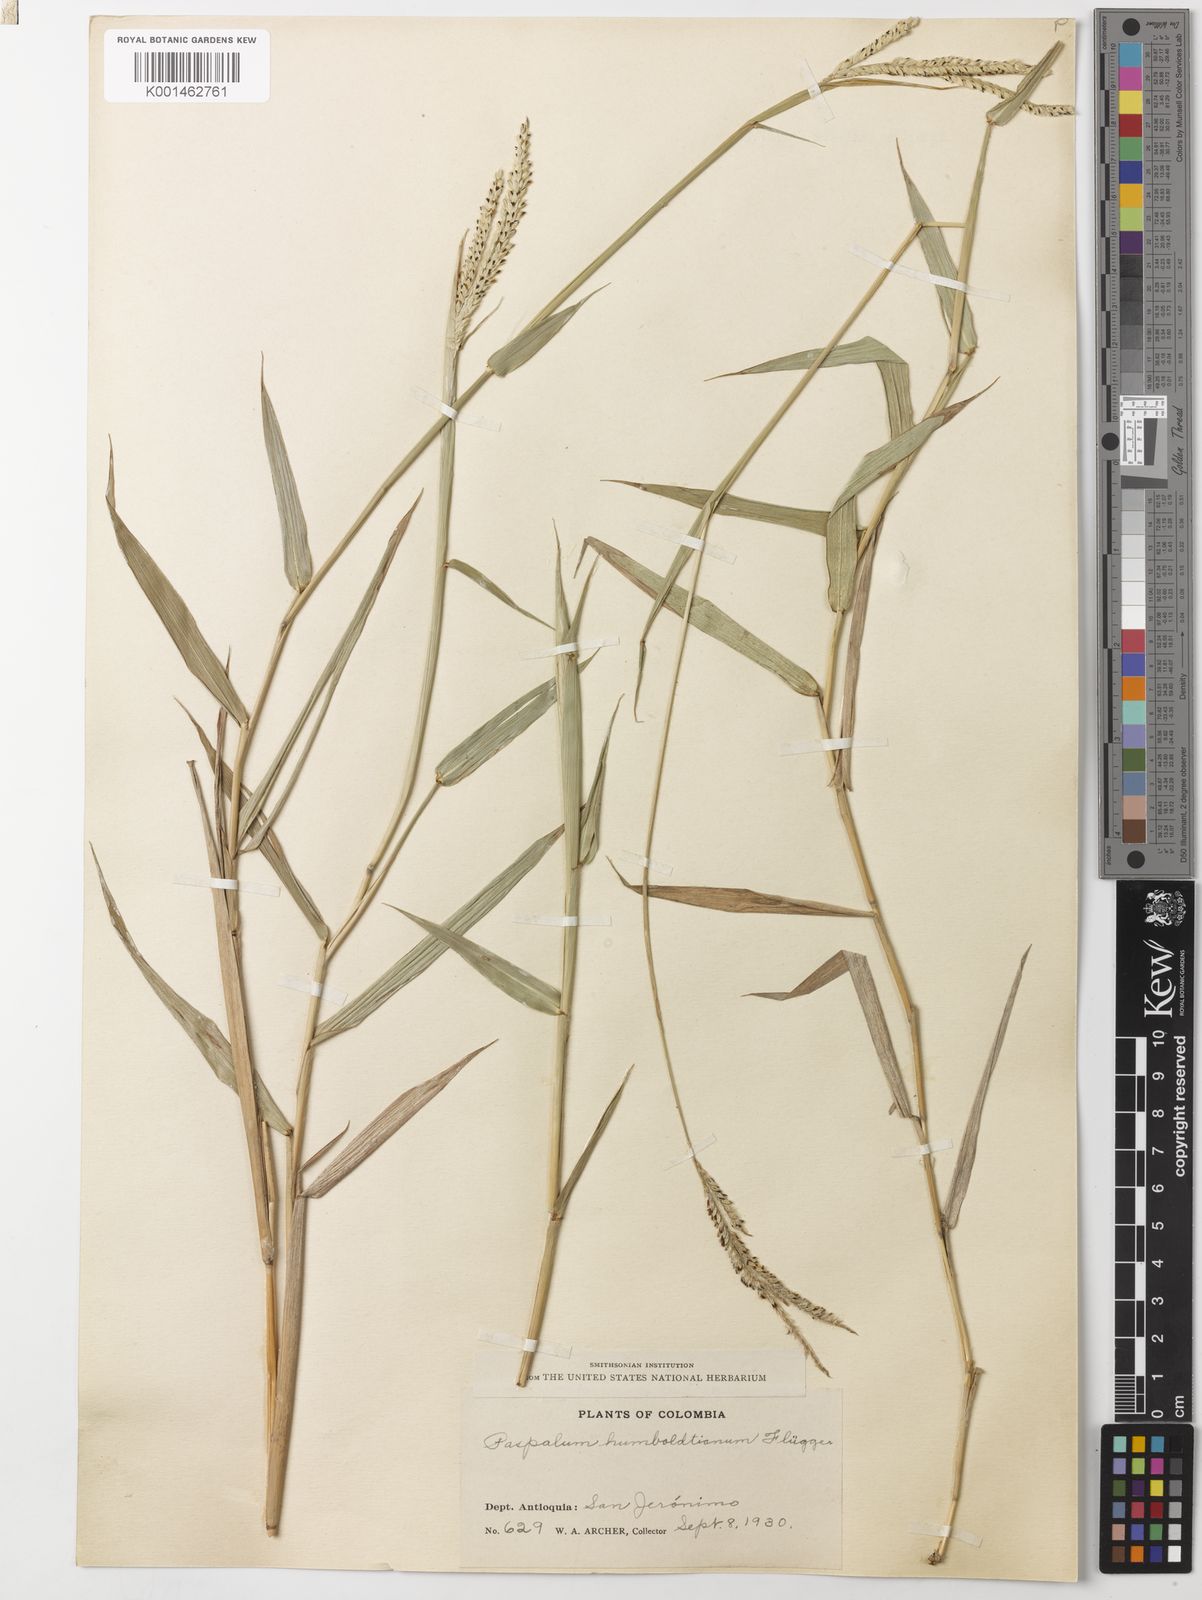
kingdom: Plantae
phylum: Tracheophyta
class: Liliopsida
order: Poales
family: Poaceae
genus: Paspalum
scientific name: Paspalum
